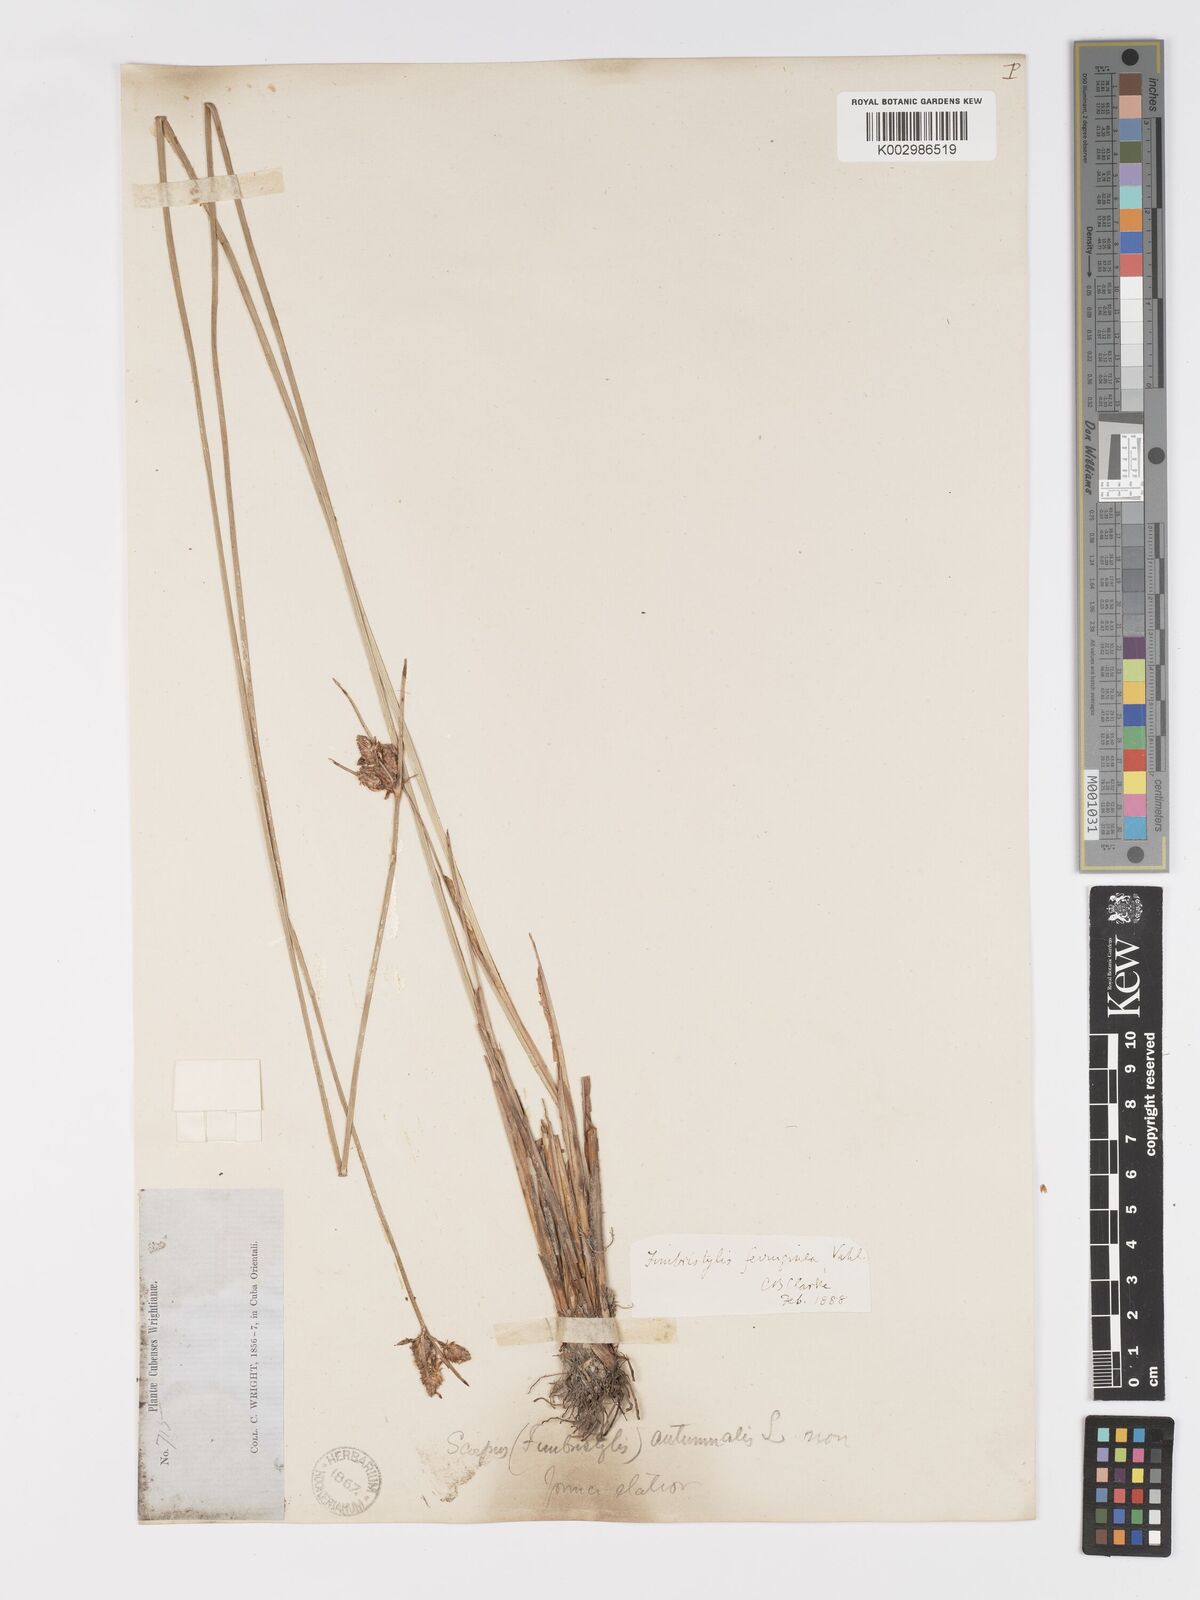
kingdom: Plantae
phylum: Tracheophyta
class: Liliopsida
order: Poales
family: Cyperaceae
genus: Fimbristylis
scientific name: Fimbristylis ferruginea
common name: West indian fimbry
